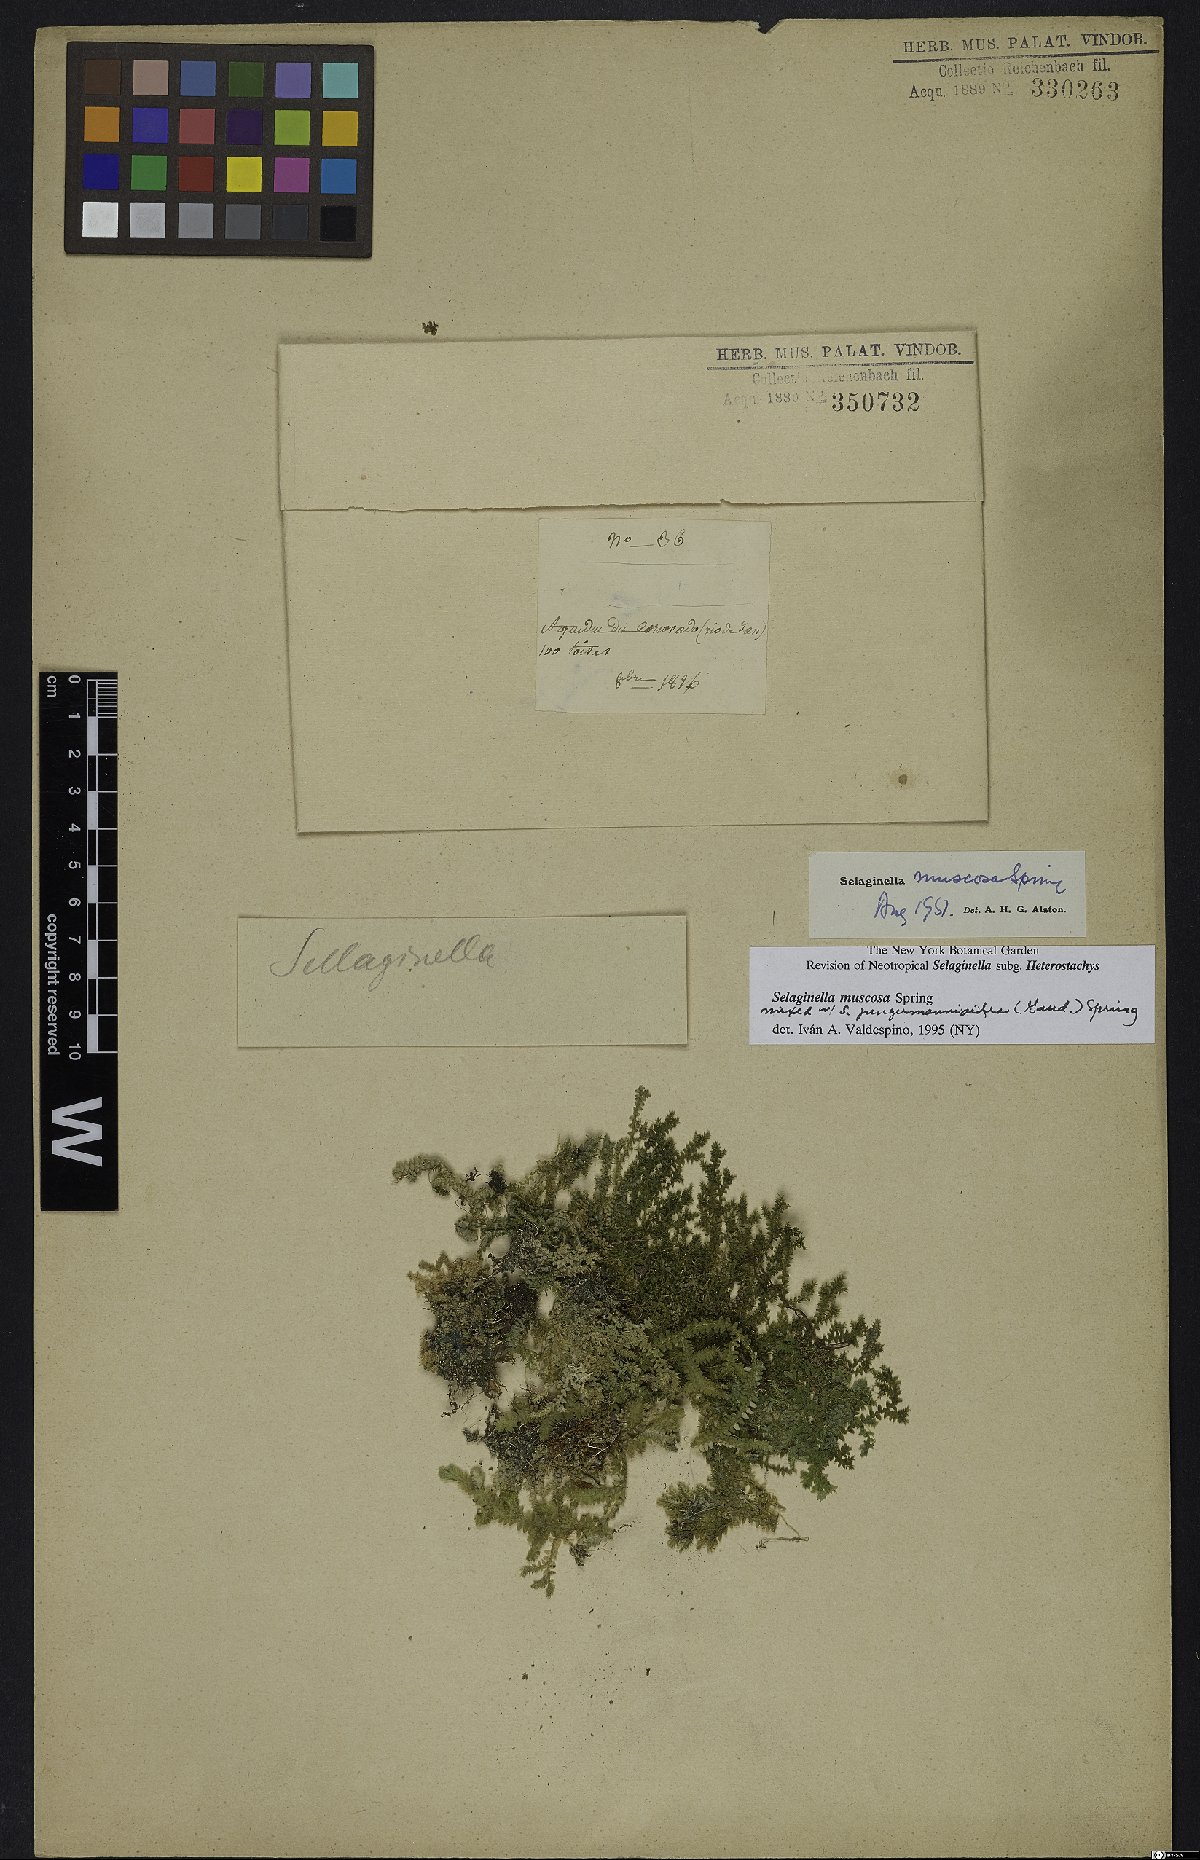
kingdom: Plantae
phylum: Tracheophyta
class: Lycopodiopsida
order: Selaginellales
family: Selaginellaceae
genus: Selaginella
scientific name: Selaginella muscosa
